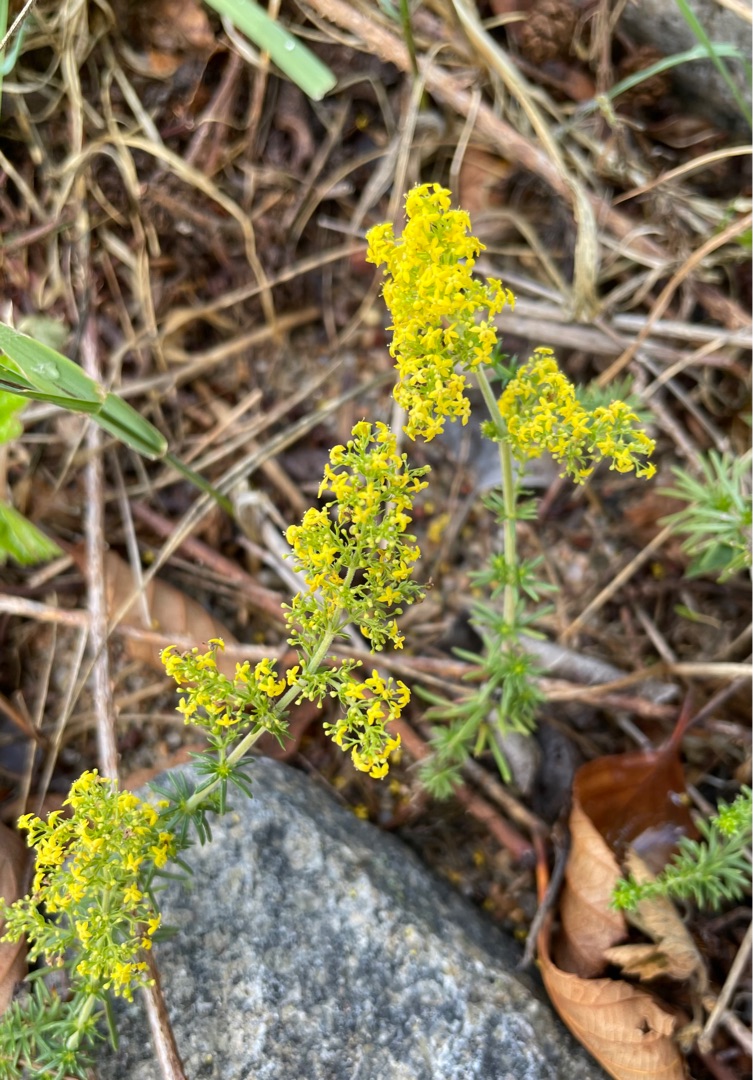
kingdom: Plantae
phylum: Tracheophyta
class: Magnoliopsida
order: Gentianales
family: Rubiaceae
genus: Galium
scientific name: Galium verum
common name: Gul snerre
